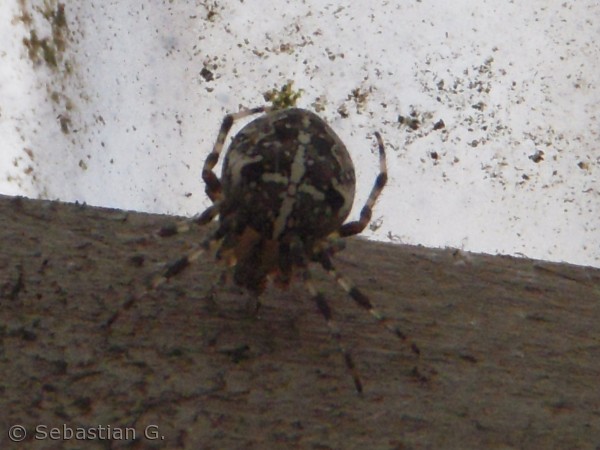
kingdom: Animalia
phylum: Arthropoda
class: Arachnida
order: Araneae
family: Araneidae
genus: Araneus
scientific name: Araneus diadematus
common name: Korsedderkop
